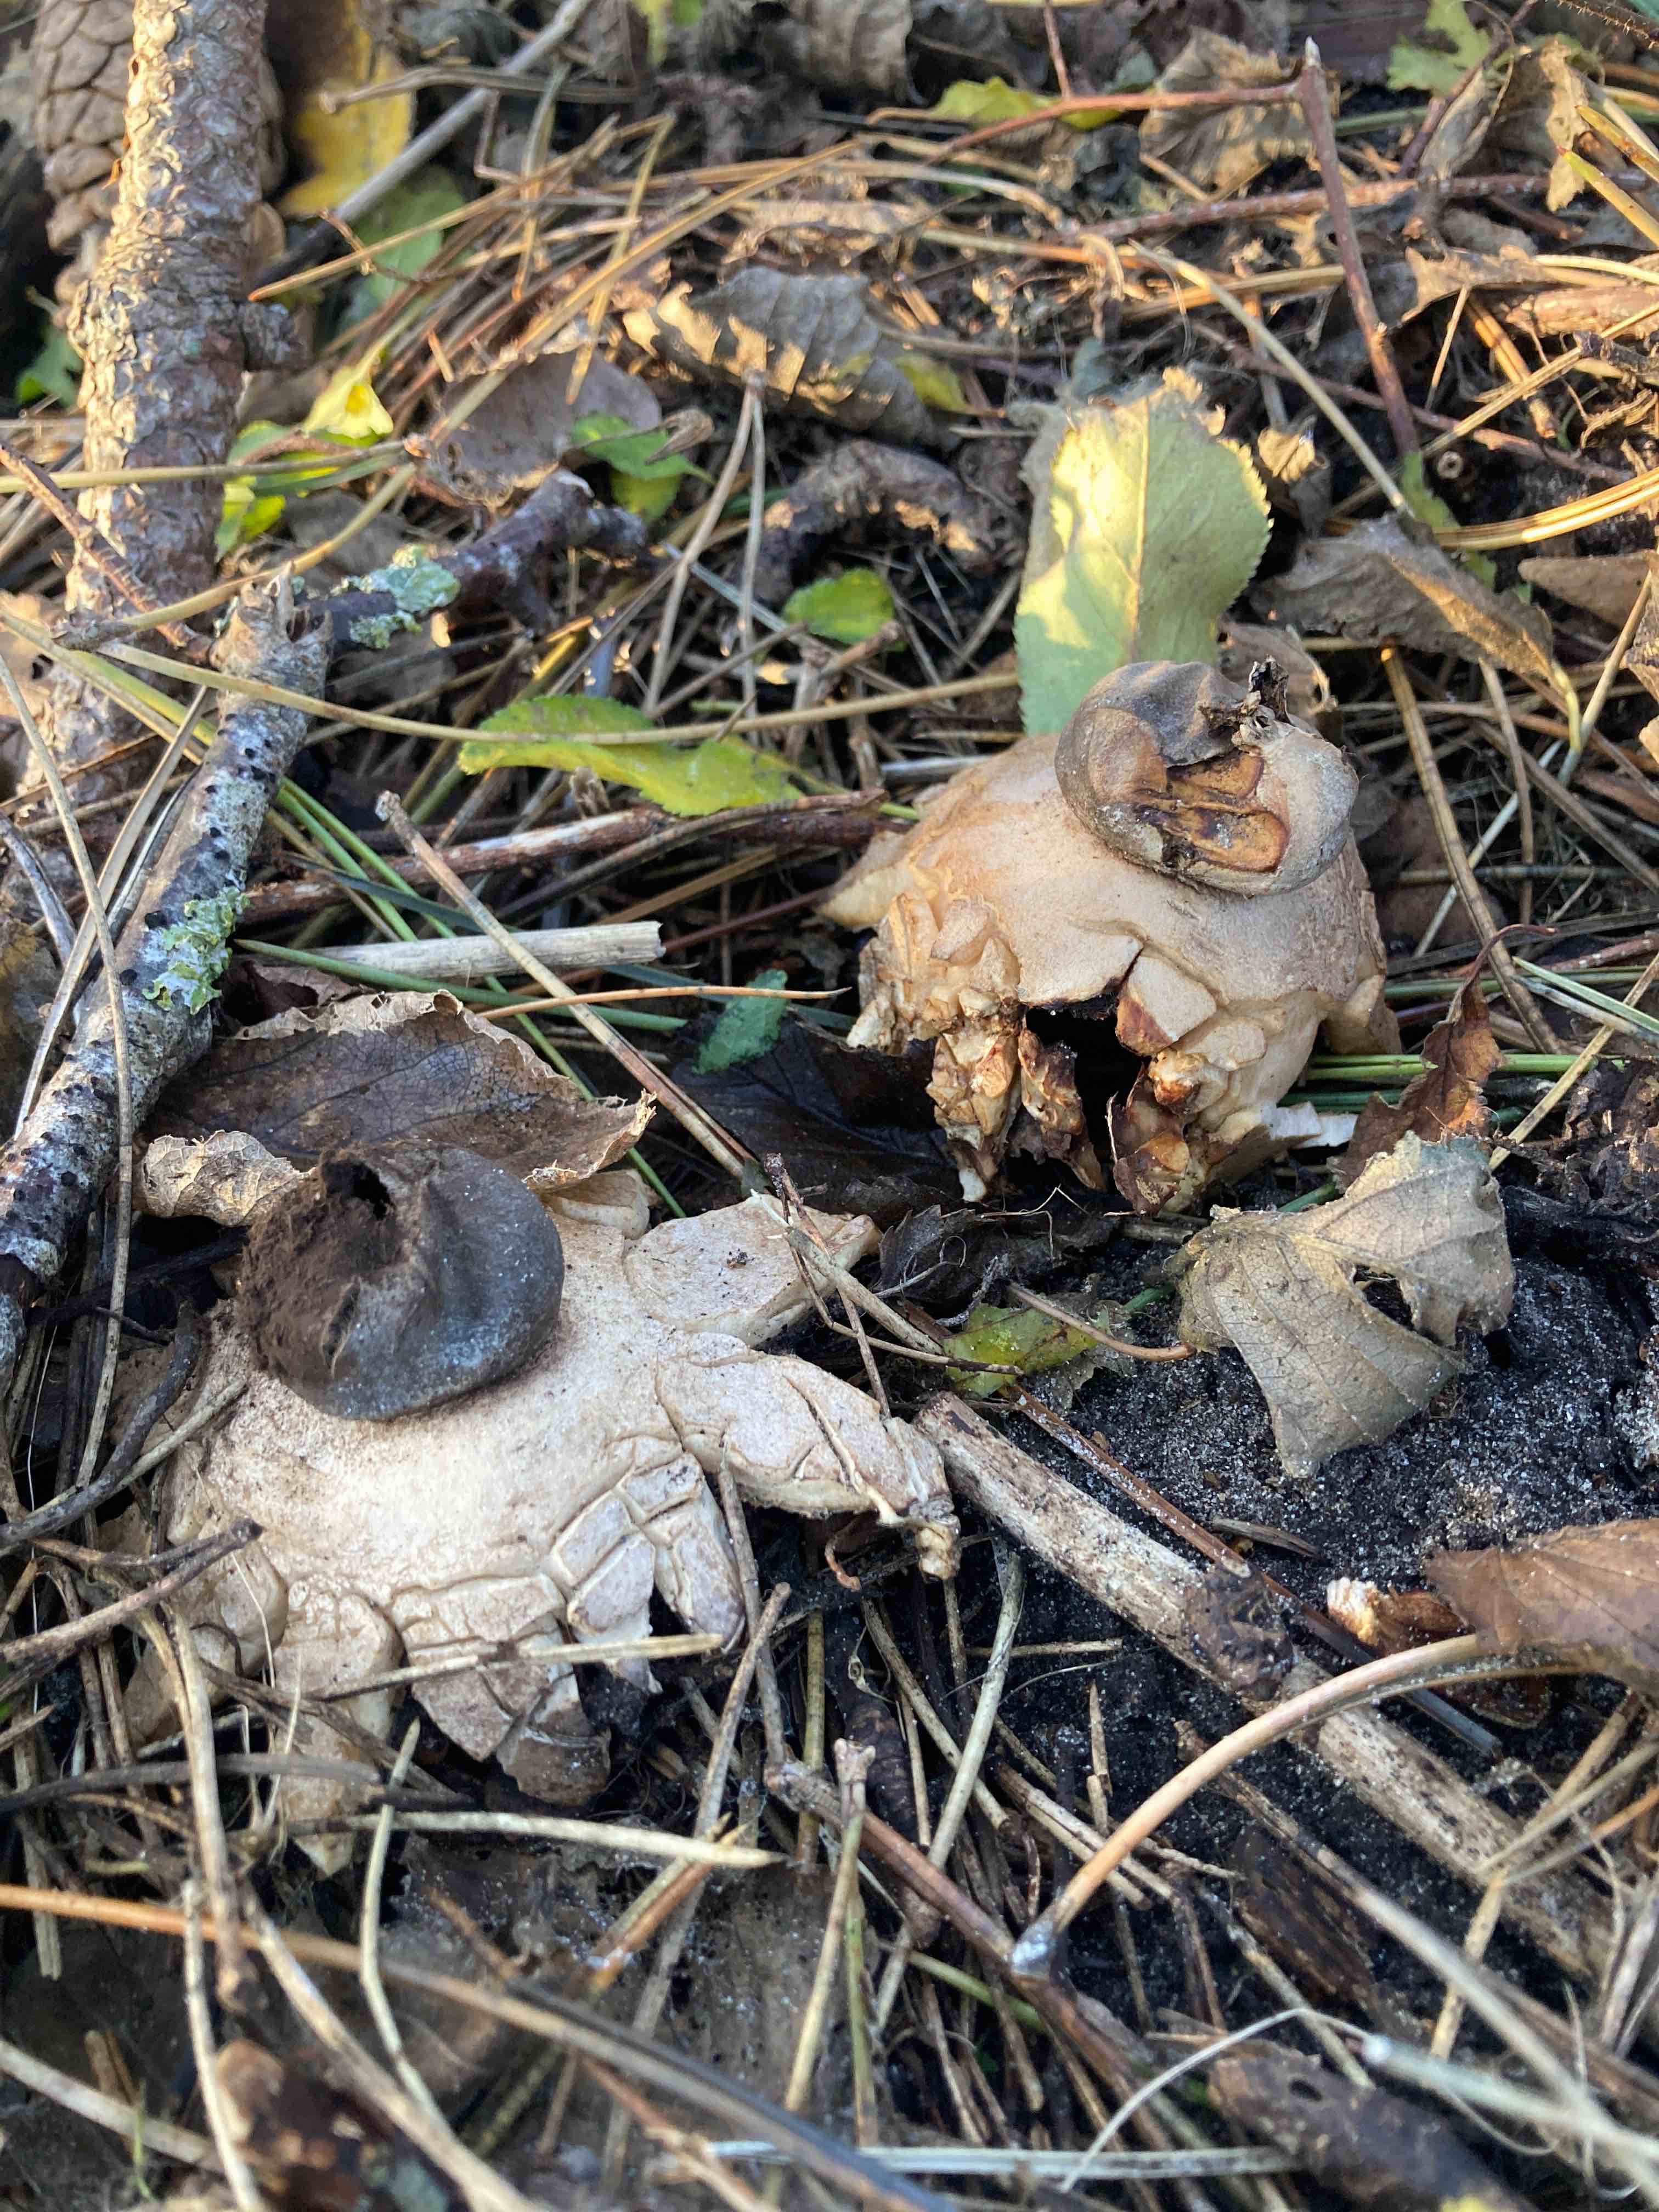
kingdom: Fungi
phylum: Basidiomycota
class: Agaricomycetes
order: Geastrales
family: Geastraceae
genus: Geastrum
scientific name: Geastrum coronatum
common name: mørk stjernebold
